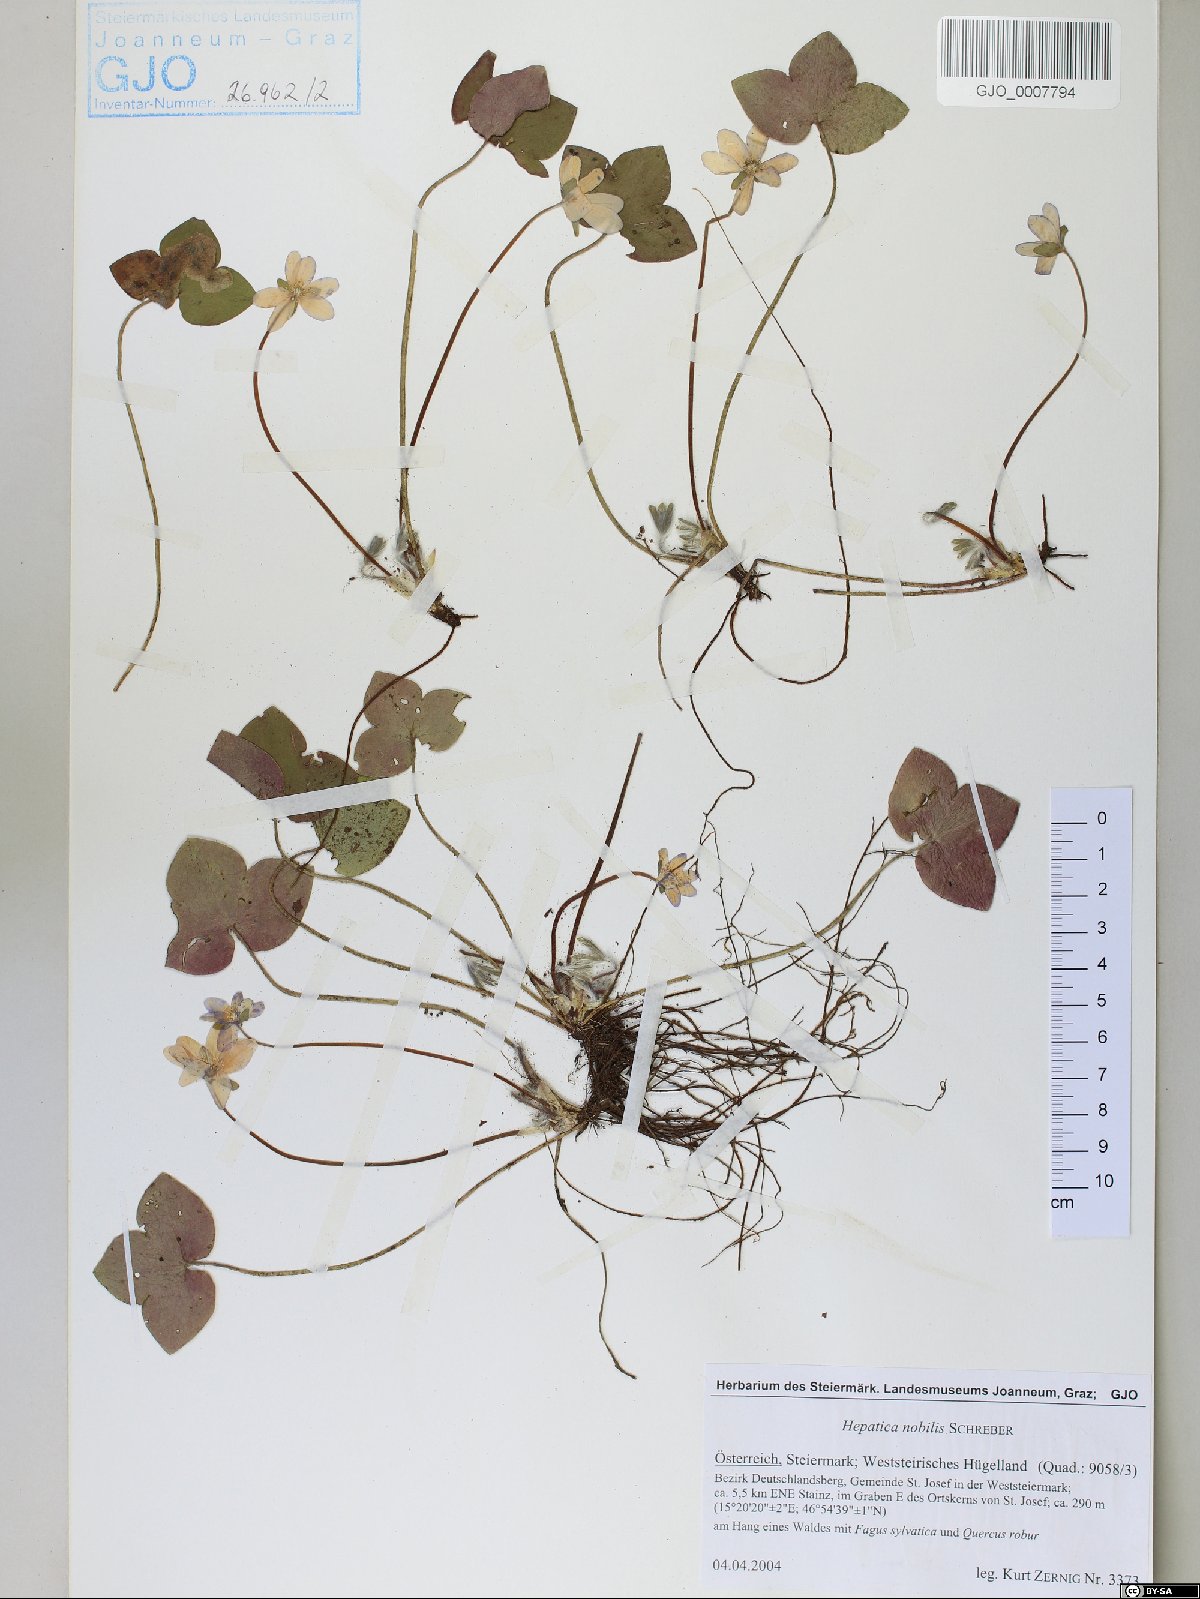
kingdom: Plantae
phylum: Tracheophyta
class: Magnoliopsida
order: Ranunculales
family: Ranunculaceae
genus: Hepatica
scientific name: Hepatica nobilis
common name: Liverleaf
